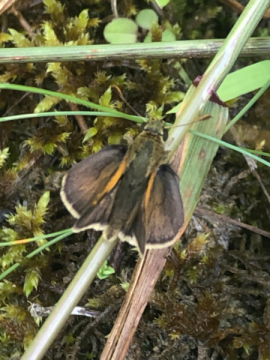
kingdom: Animalia
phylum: Arthropoda
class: Insecta
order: Lepidoptera
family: Hesperiidae
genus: Polites
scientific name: Polites themistocles
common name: Tawny-edged Skipper
